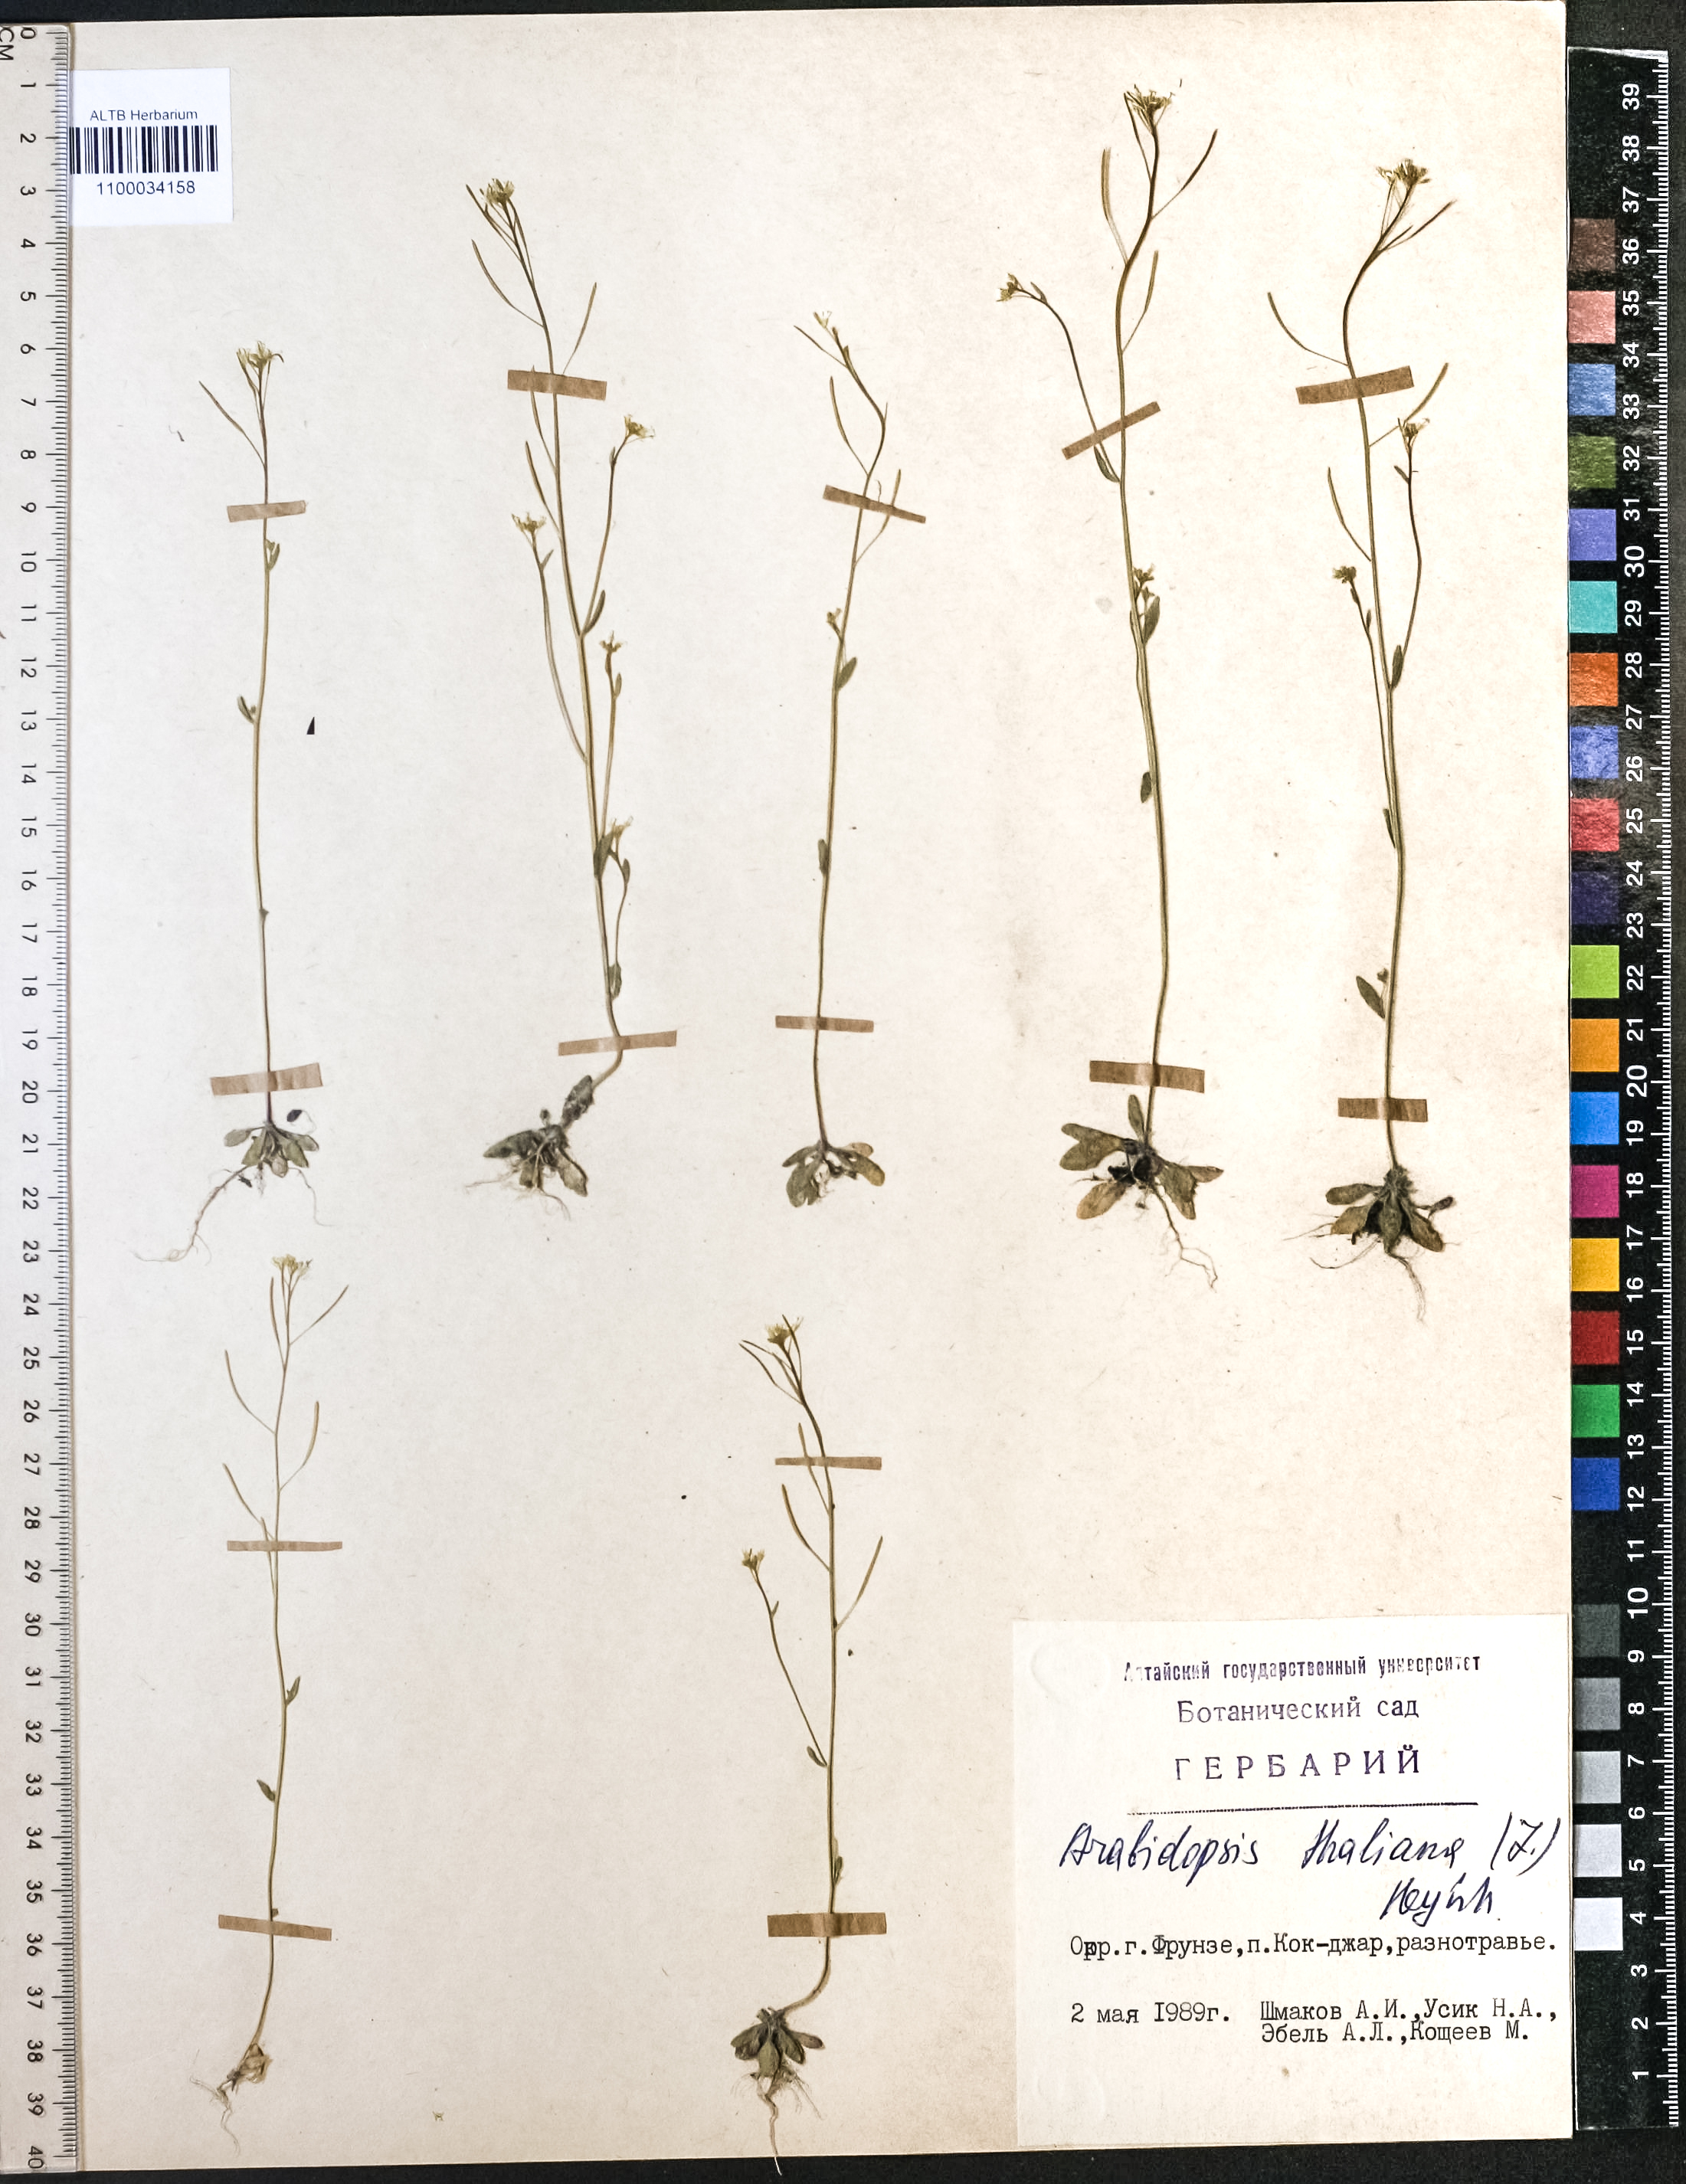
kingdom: Plantae
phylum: Tracheophyta
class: Magnoliopsida
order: Brassicales
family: Brassicaceae
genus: Arabidopsis
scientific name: Arabidopsis thaliana
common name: Thale cress
